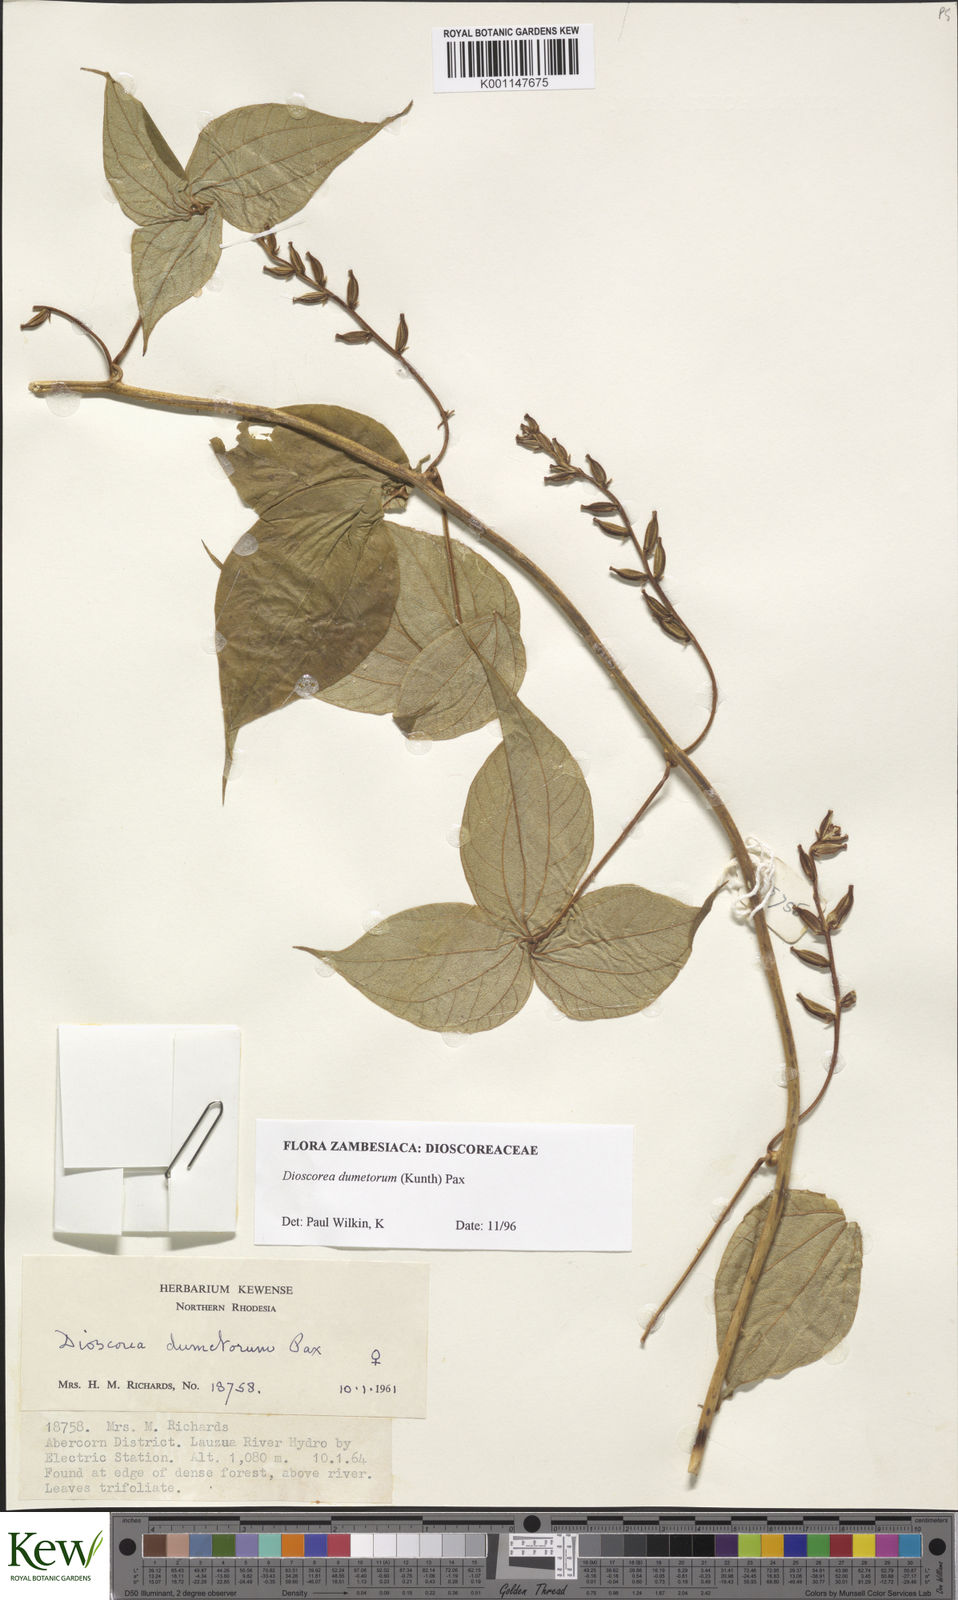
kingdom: Plantae
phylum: Tracheophyta
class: Liliopsida
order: Dioscoreales
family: Dioscoreaceae
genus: Dioscorea
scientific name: Dioscorea dumetorum
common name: African bitter yam
